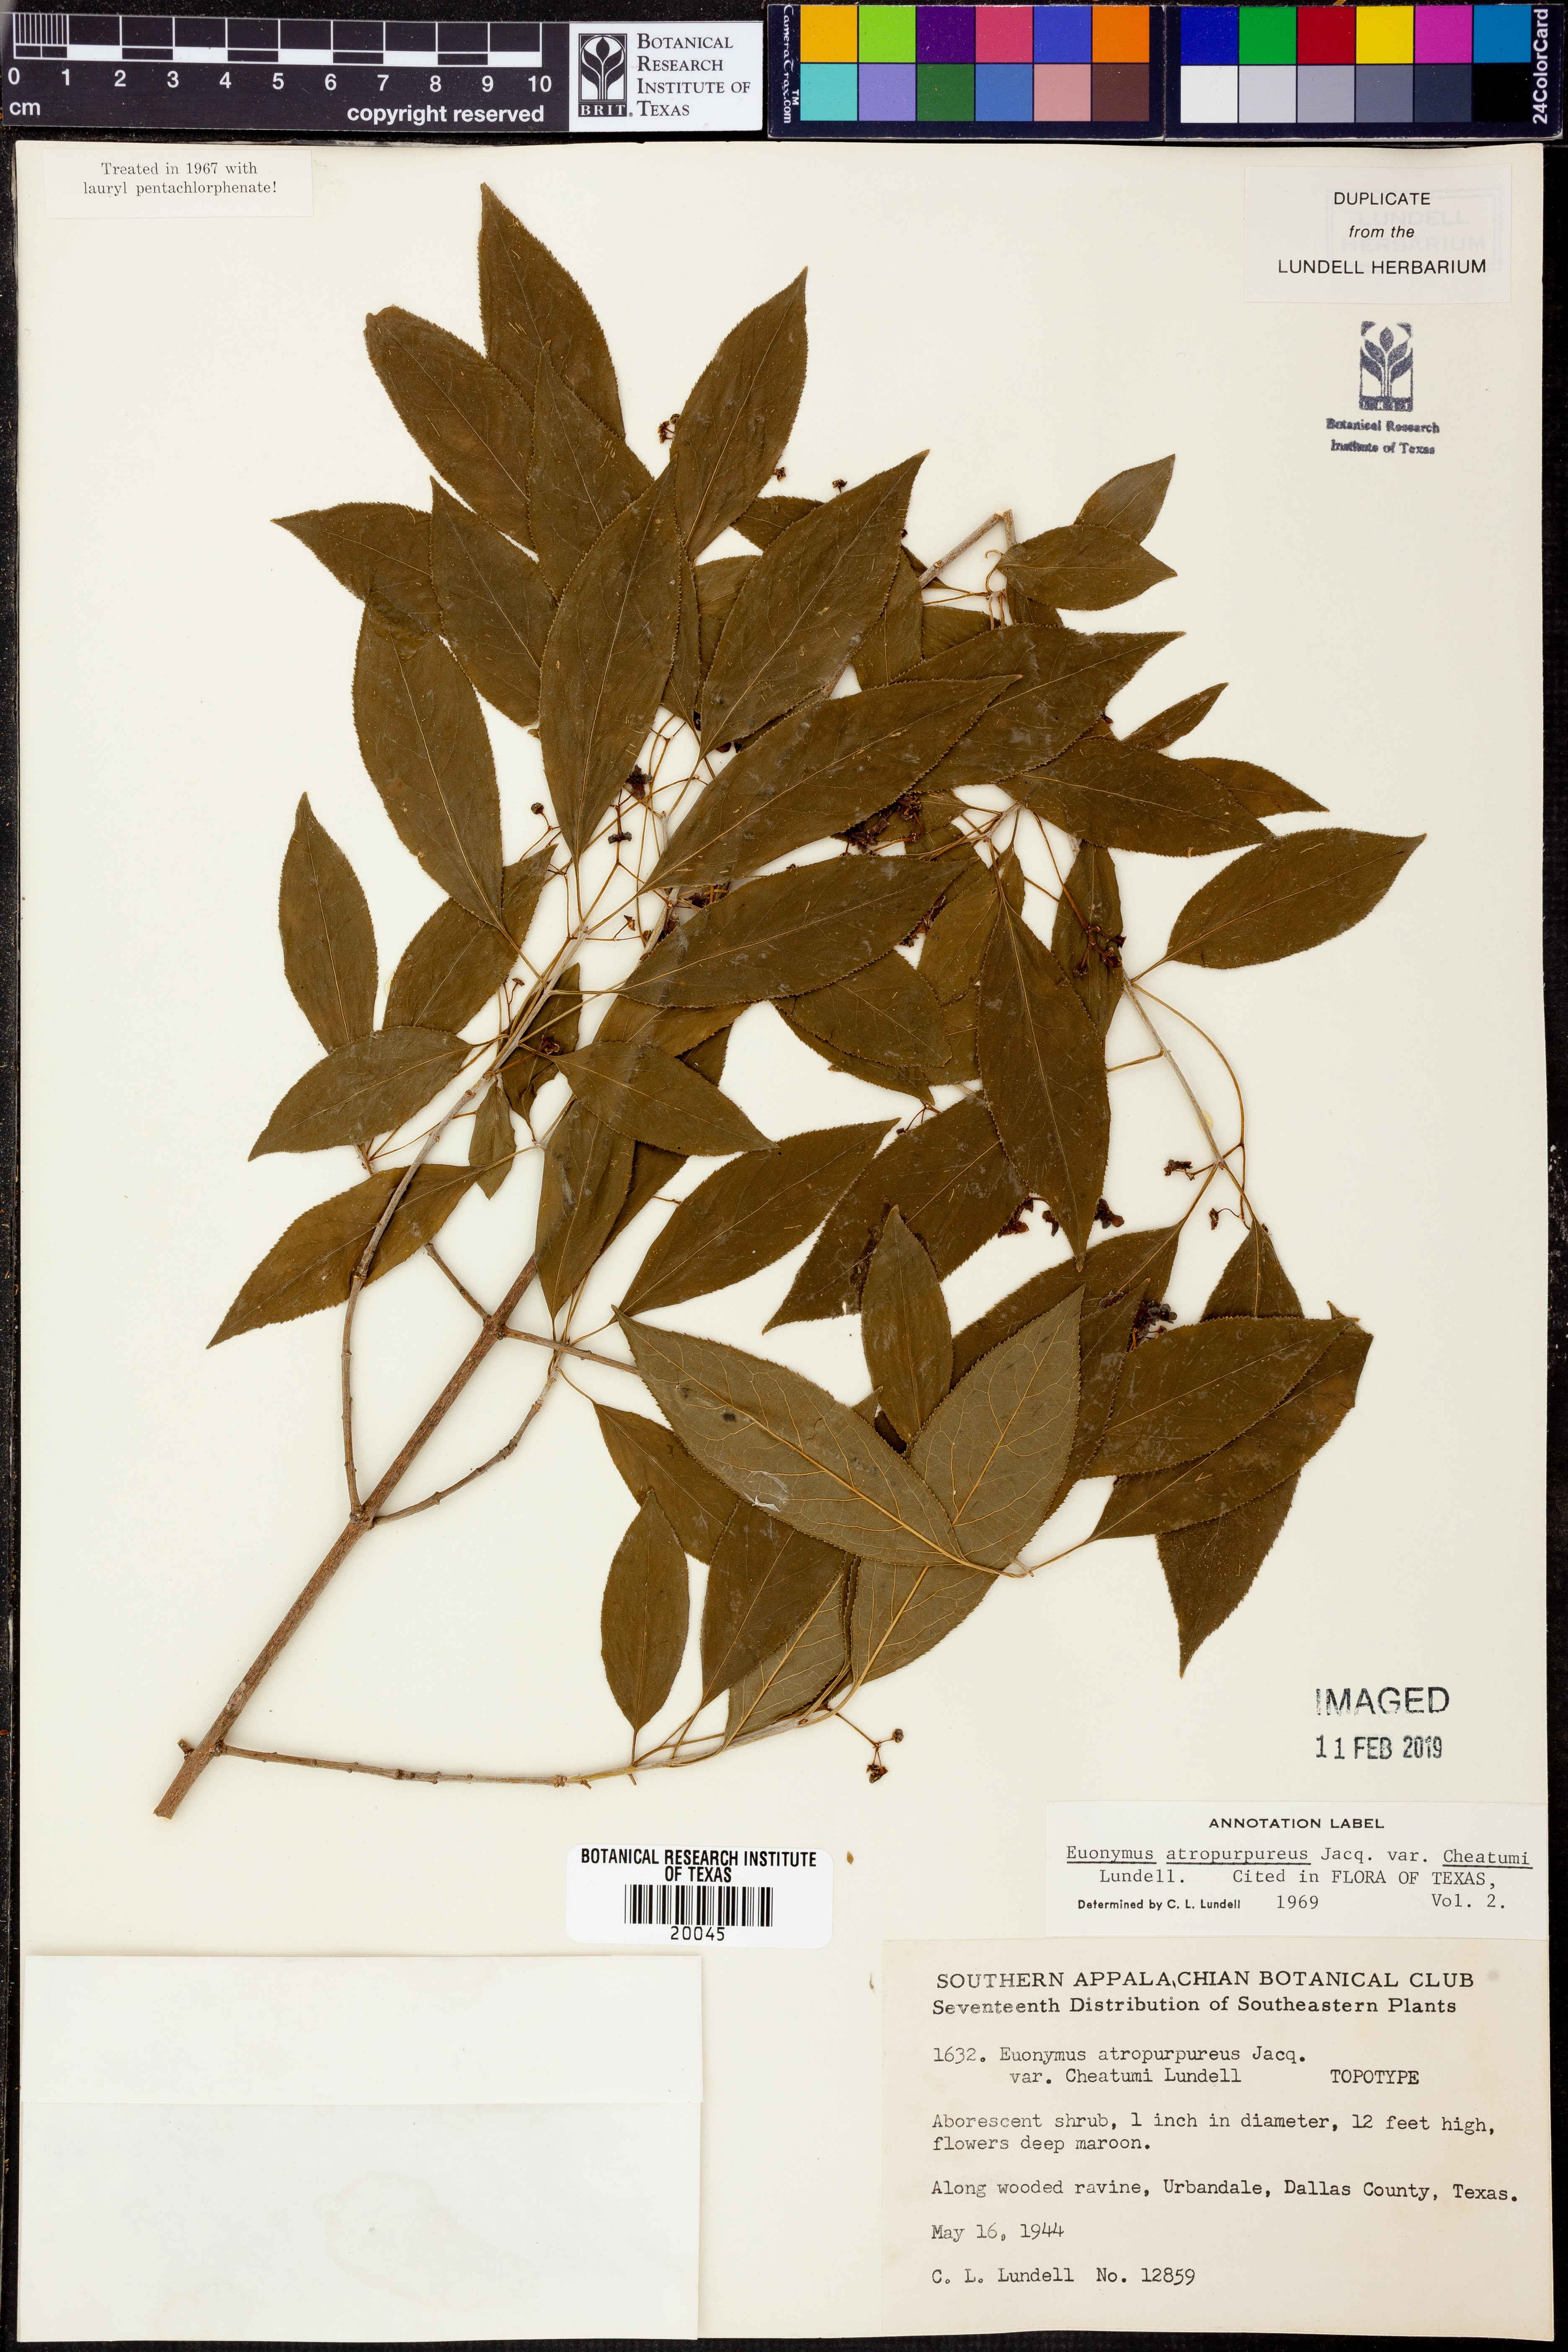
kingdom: Plantae
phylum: Tracheophyta
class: Magnoliopsida
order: Celastrales
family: Celastraceae
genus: Euonymus
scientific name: Euonymus atropurpureus
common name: Eastern wahoo
